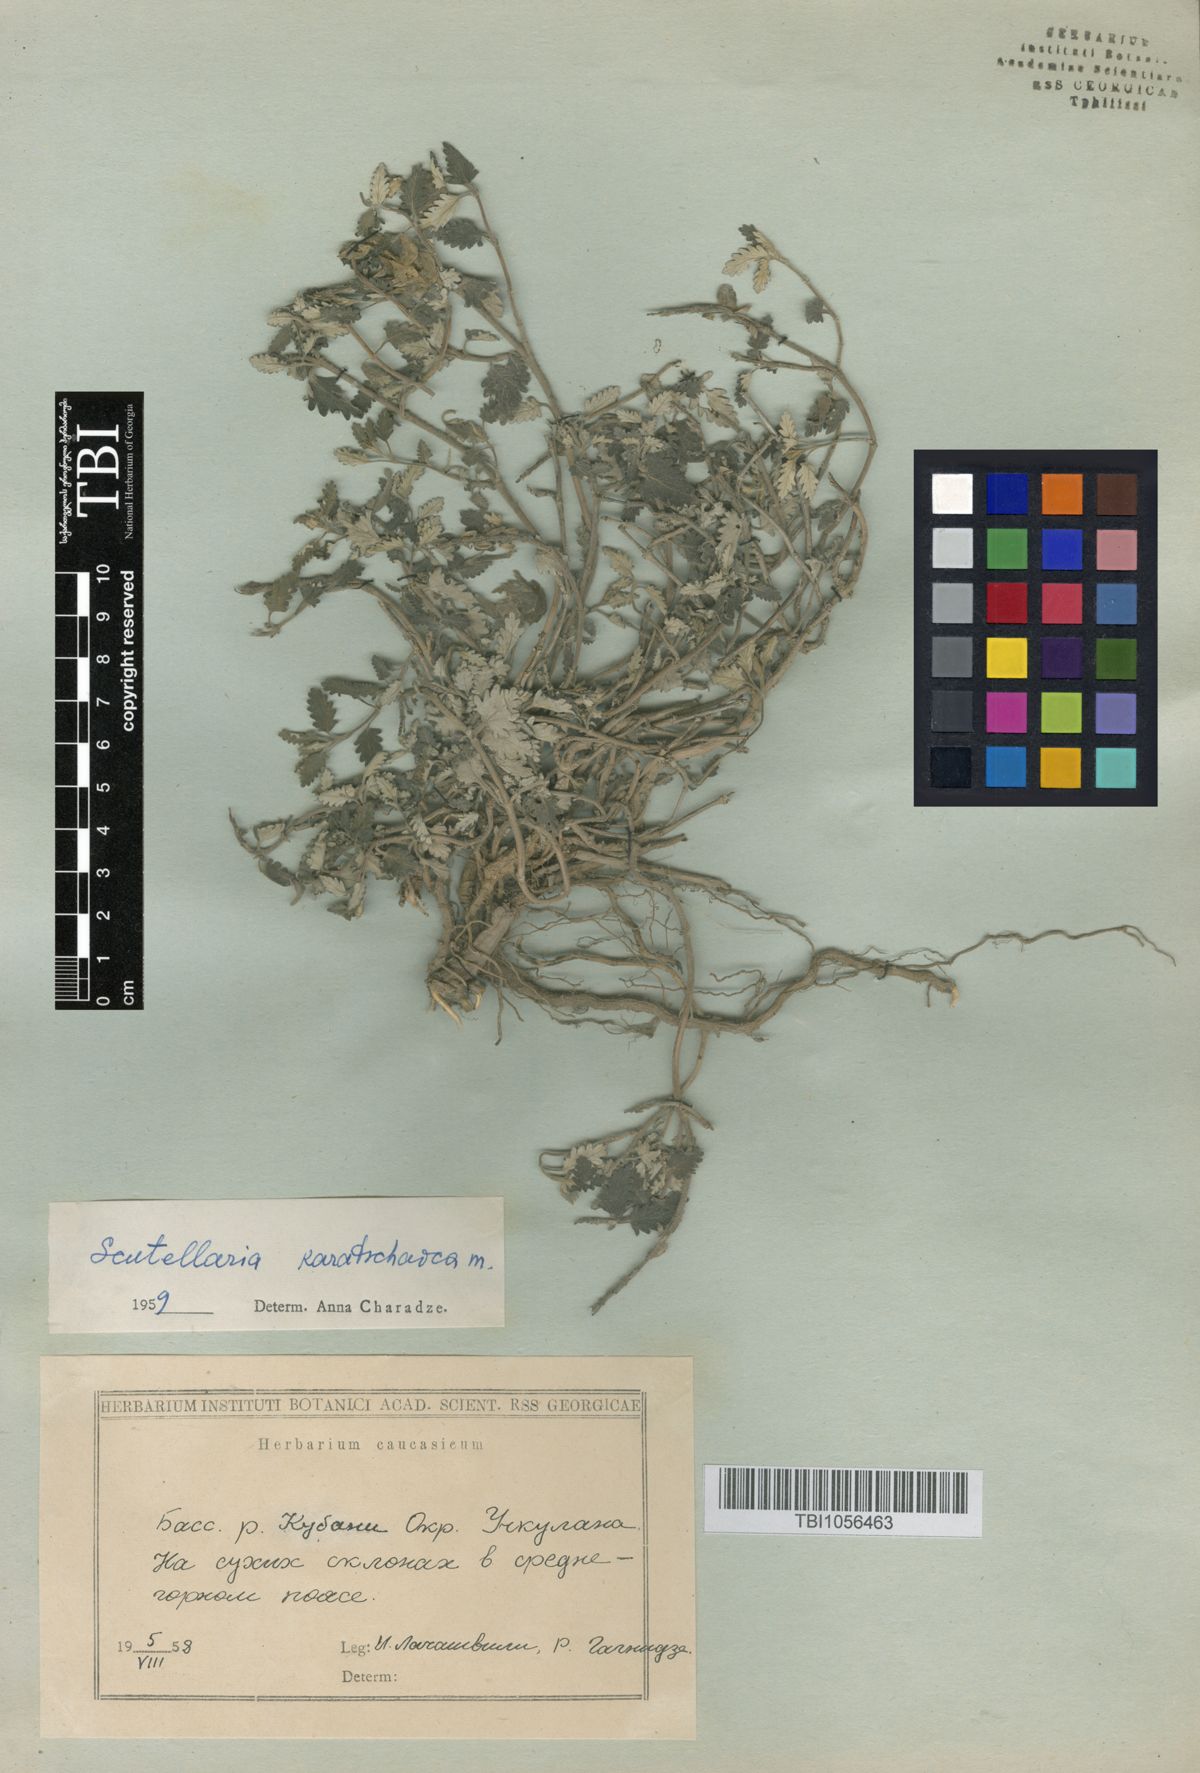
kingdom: Plantae
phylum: Tracheophyta
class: Magnoliopsida
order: Lamiales
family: Lamiaceae
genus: Scutellaria
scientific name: Scutellaria orientalis
